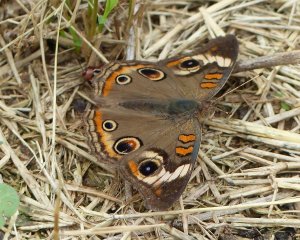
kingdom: Animalia
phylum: Arthropoda
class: Insecta
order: Lepidoptera
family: Nymphalidae
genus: Junonia
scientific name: Junonia coenia
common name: Common Buckeye
